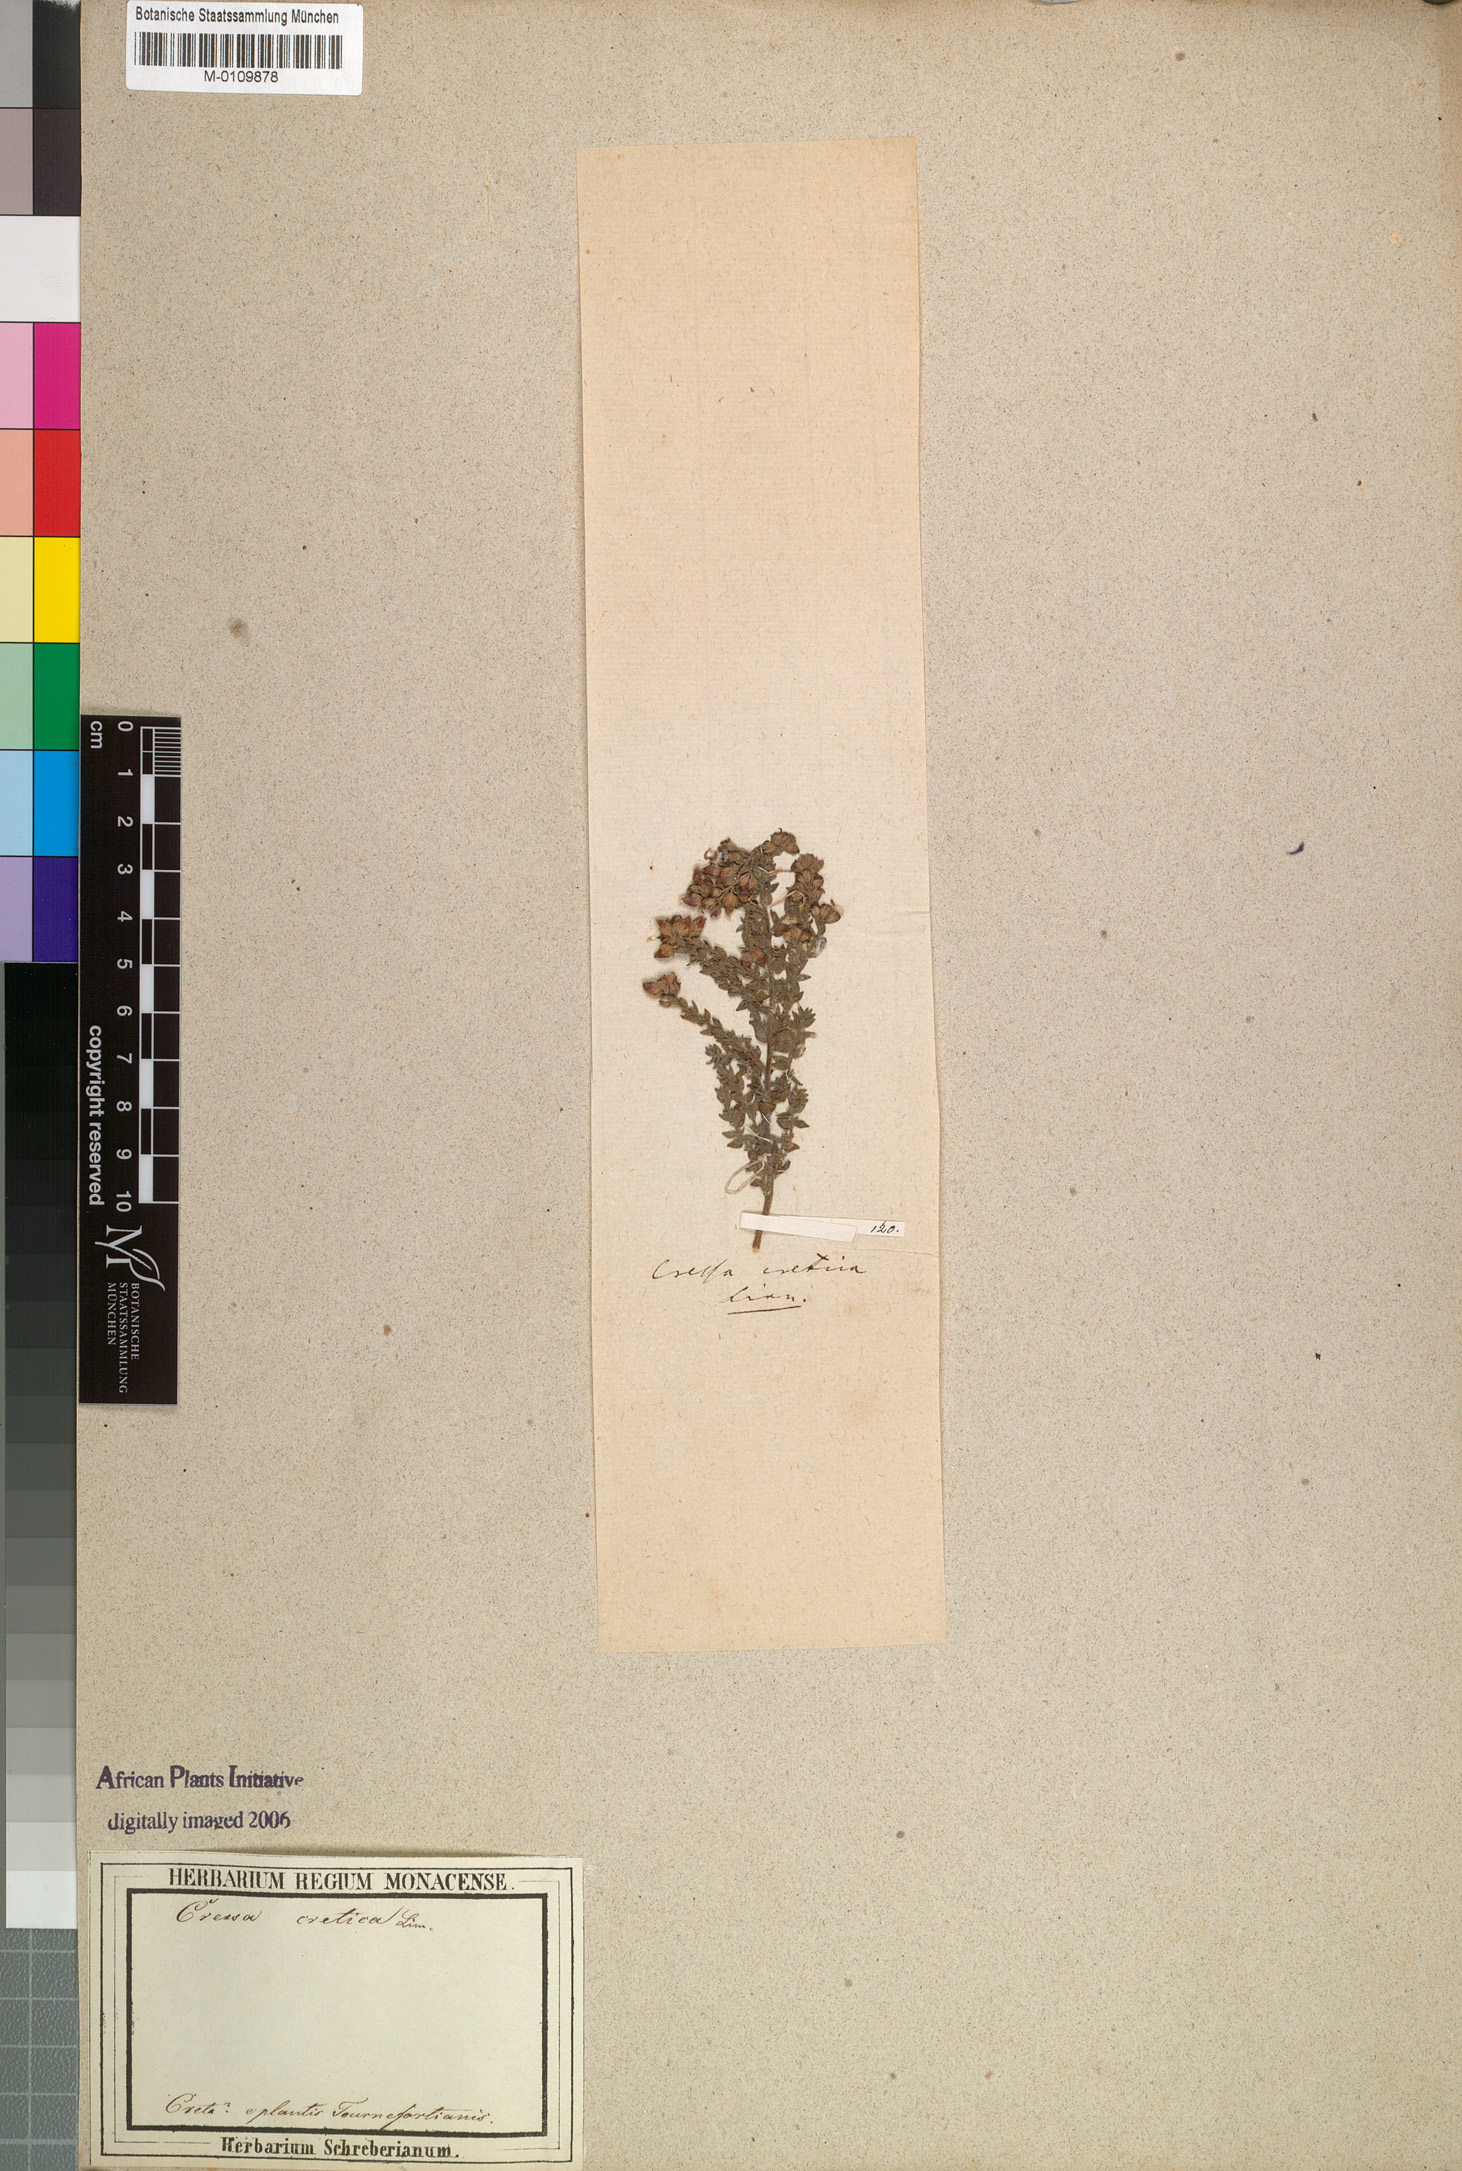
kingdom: Plantae
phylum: Tracheophyta
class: Magnoliopsida
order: Solanales
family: Convolvulaceae
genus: Cressa
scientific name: Cressa cretica
